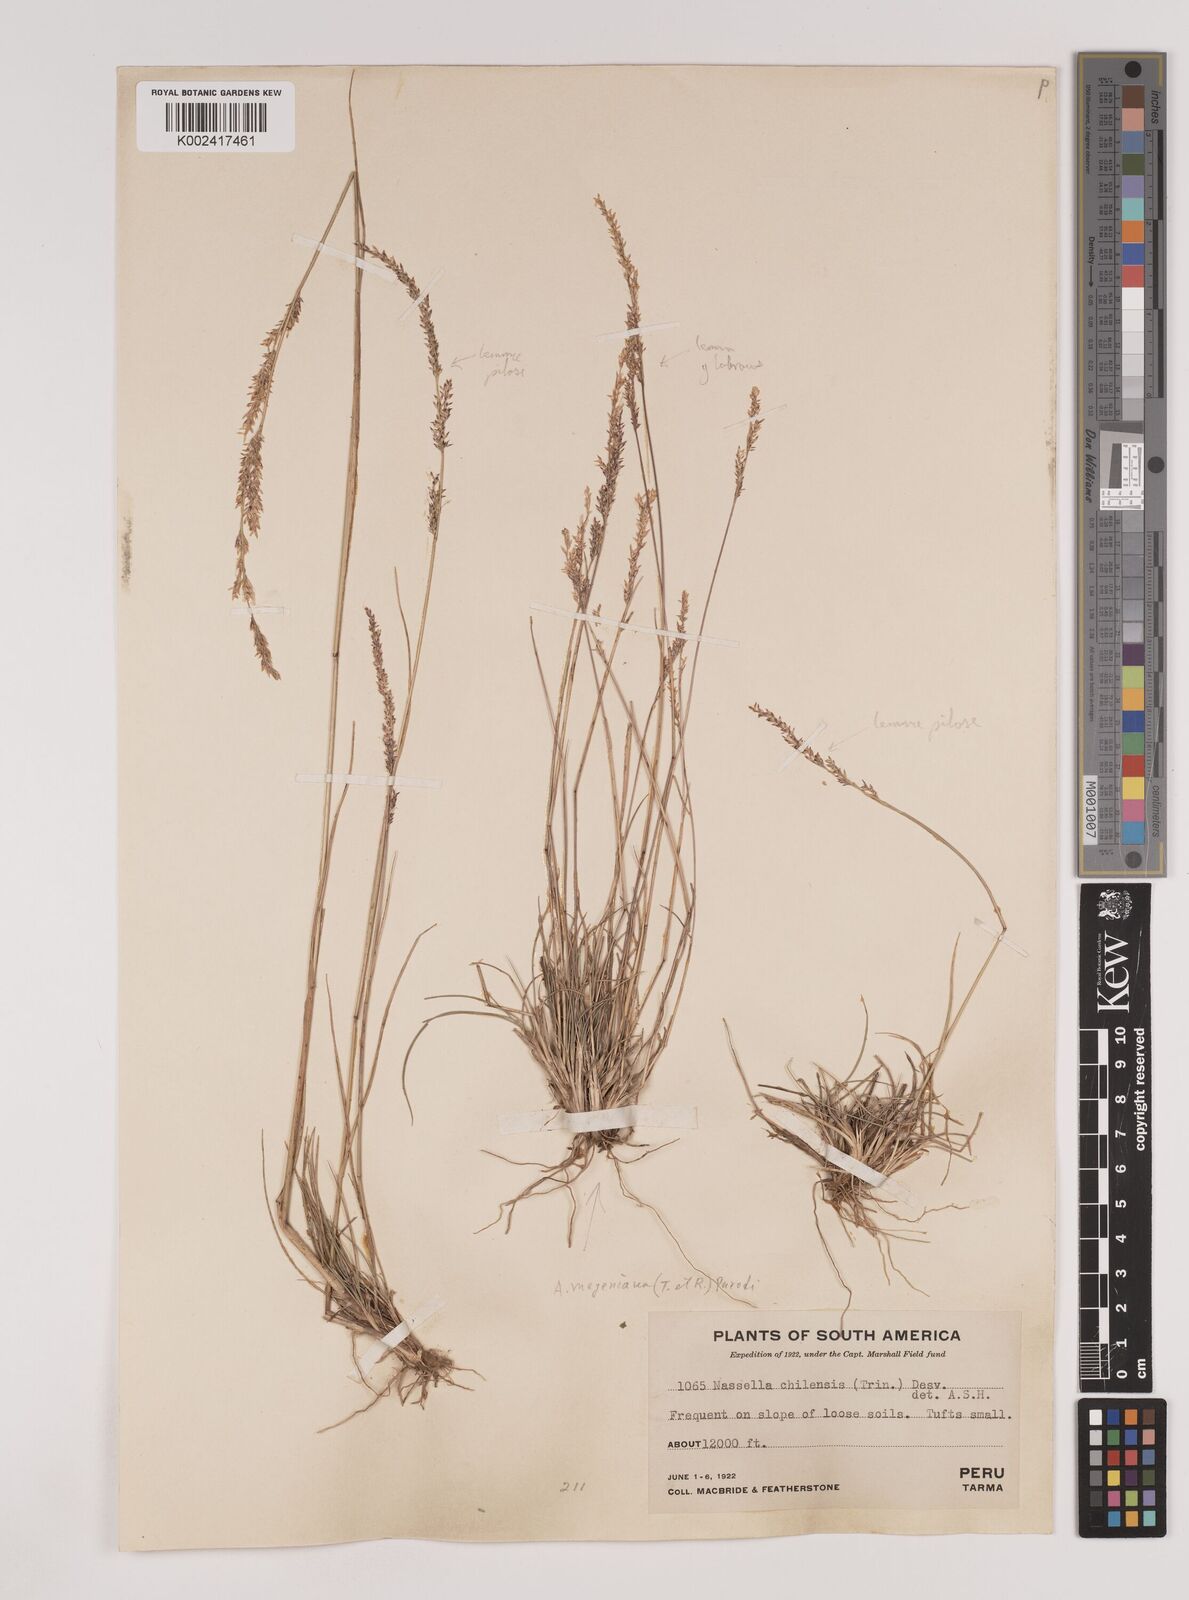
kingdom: Plantae
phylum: Tracheophyta
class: Liliopsida
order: Poales
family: Poaceae
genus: Nassella
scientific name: Nassella meyeniana
